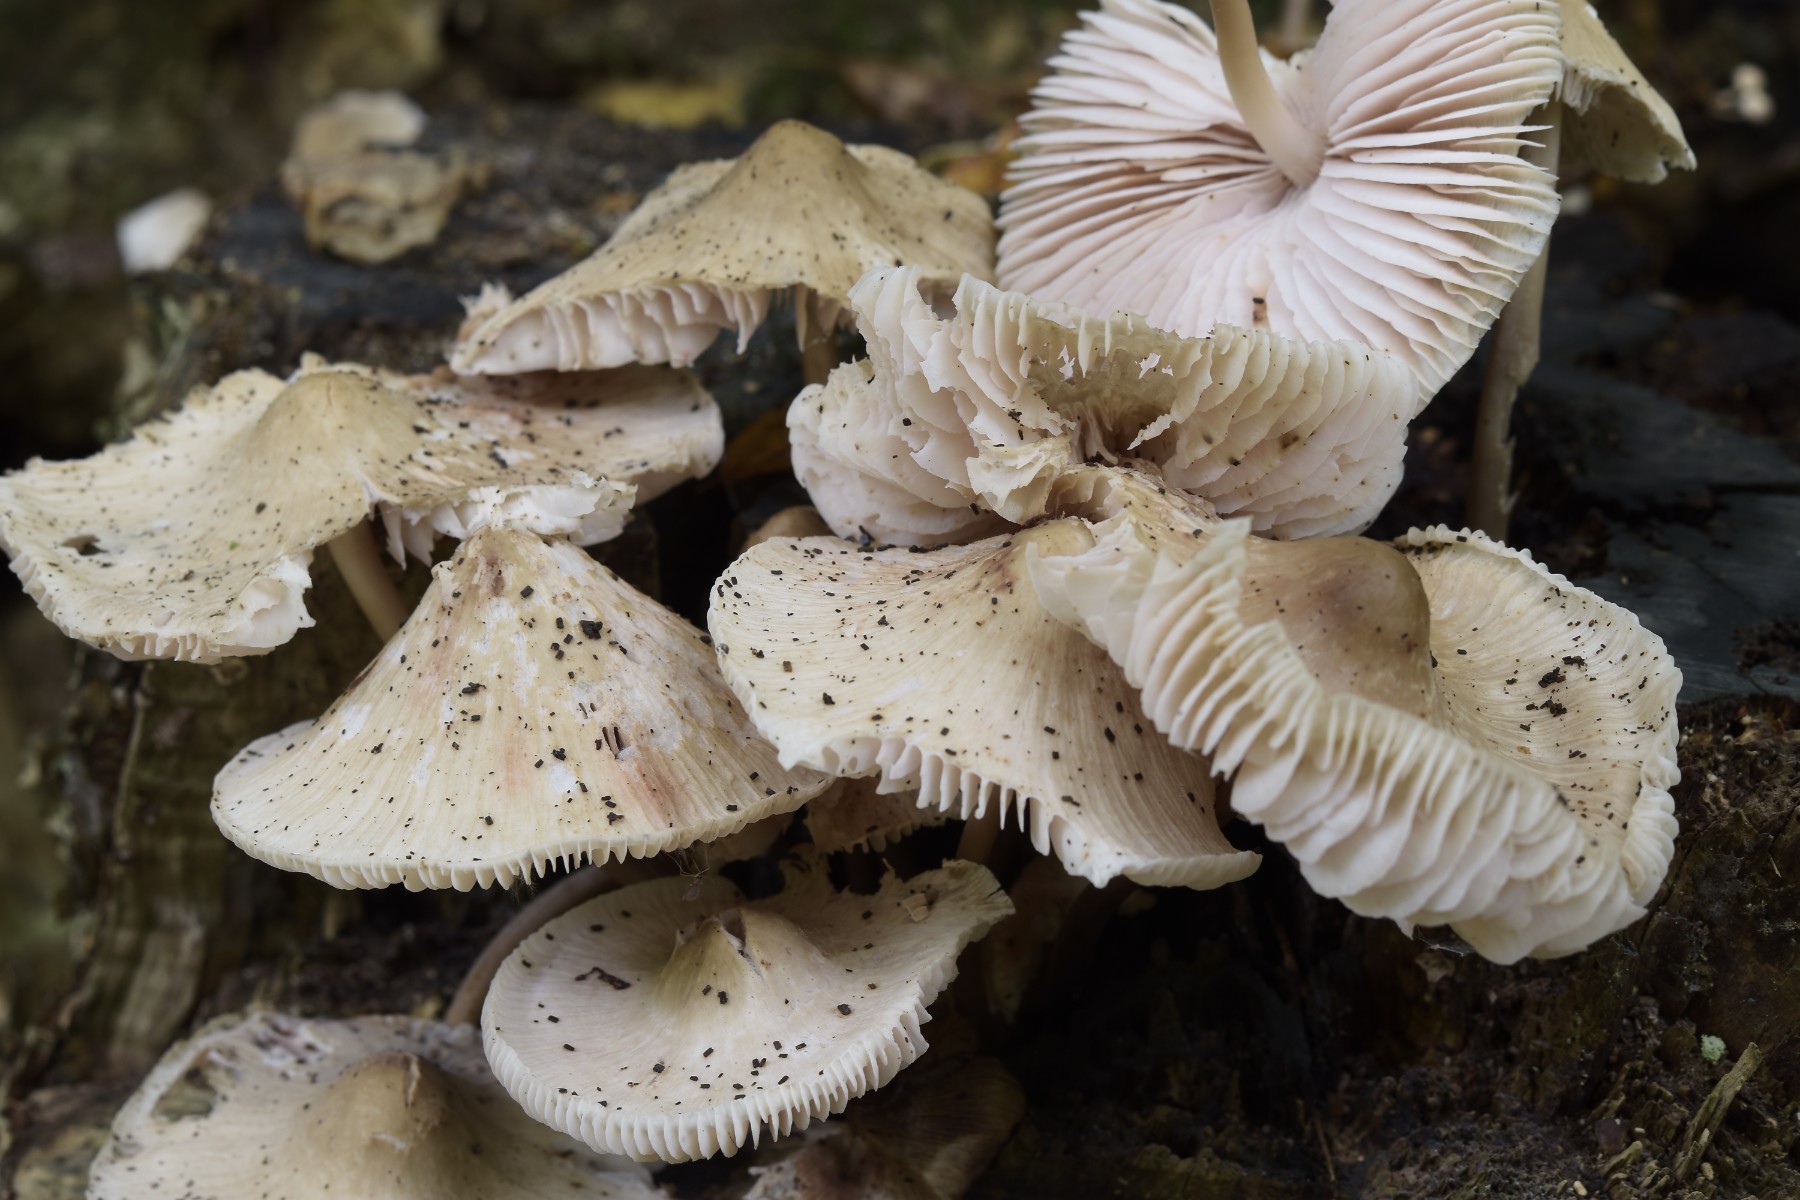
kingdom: Fungi
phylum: Basidiomycota
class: Agaricomycetes
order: Agaricales
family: Mycenaceae
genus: Mycena
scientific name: Mycena galericulata
